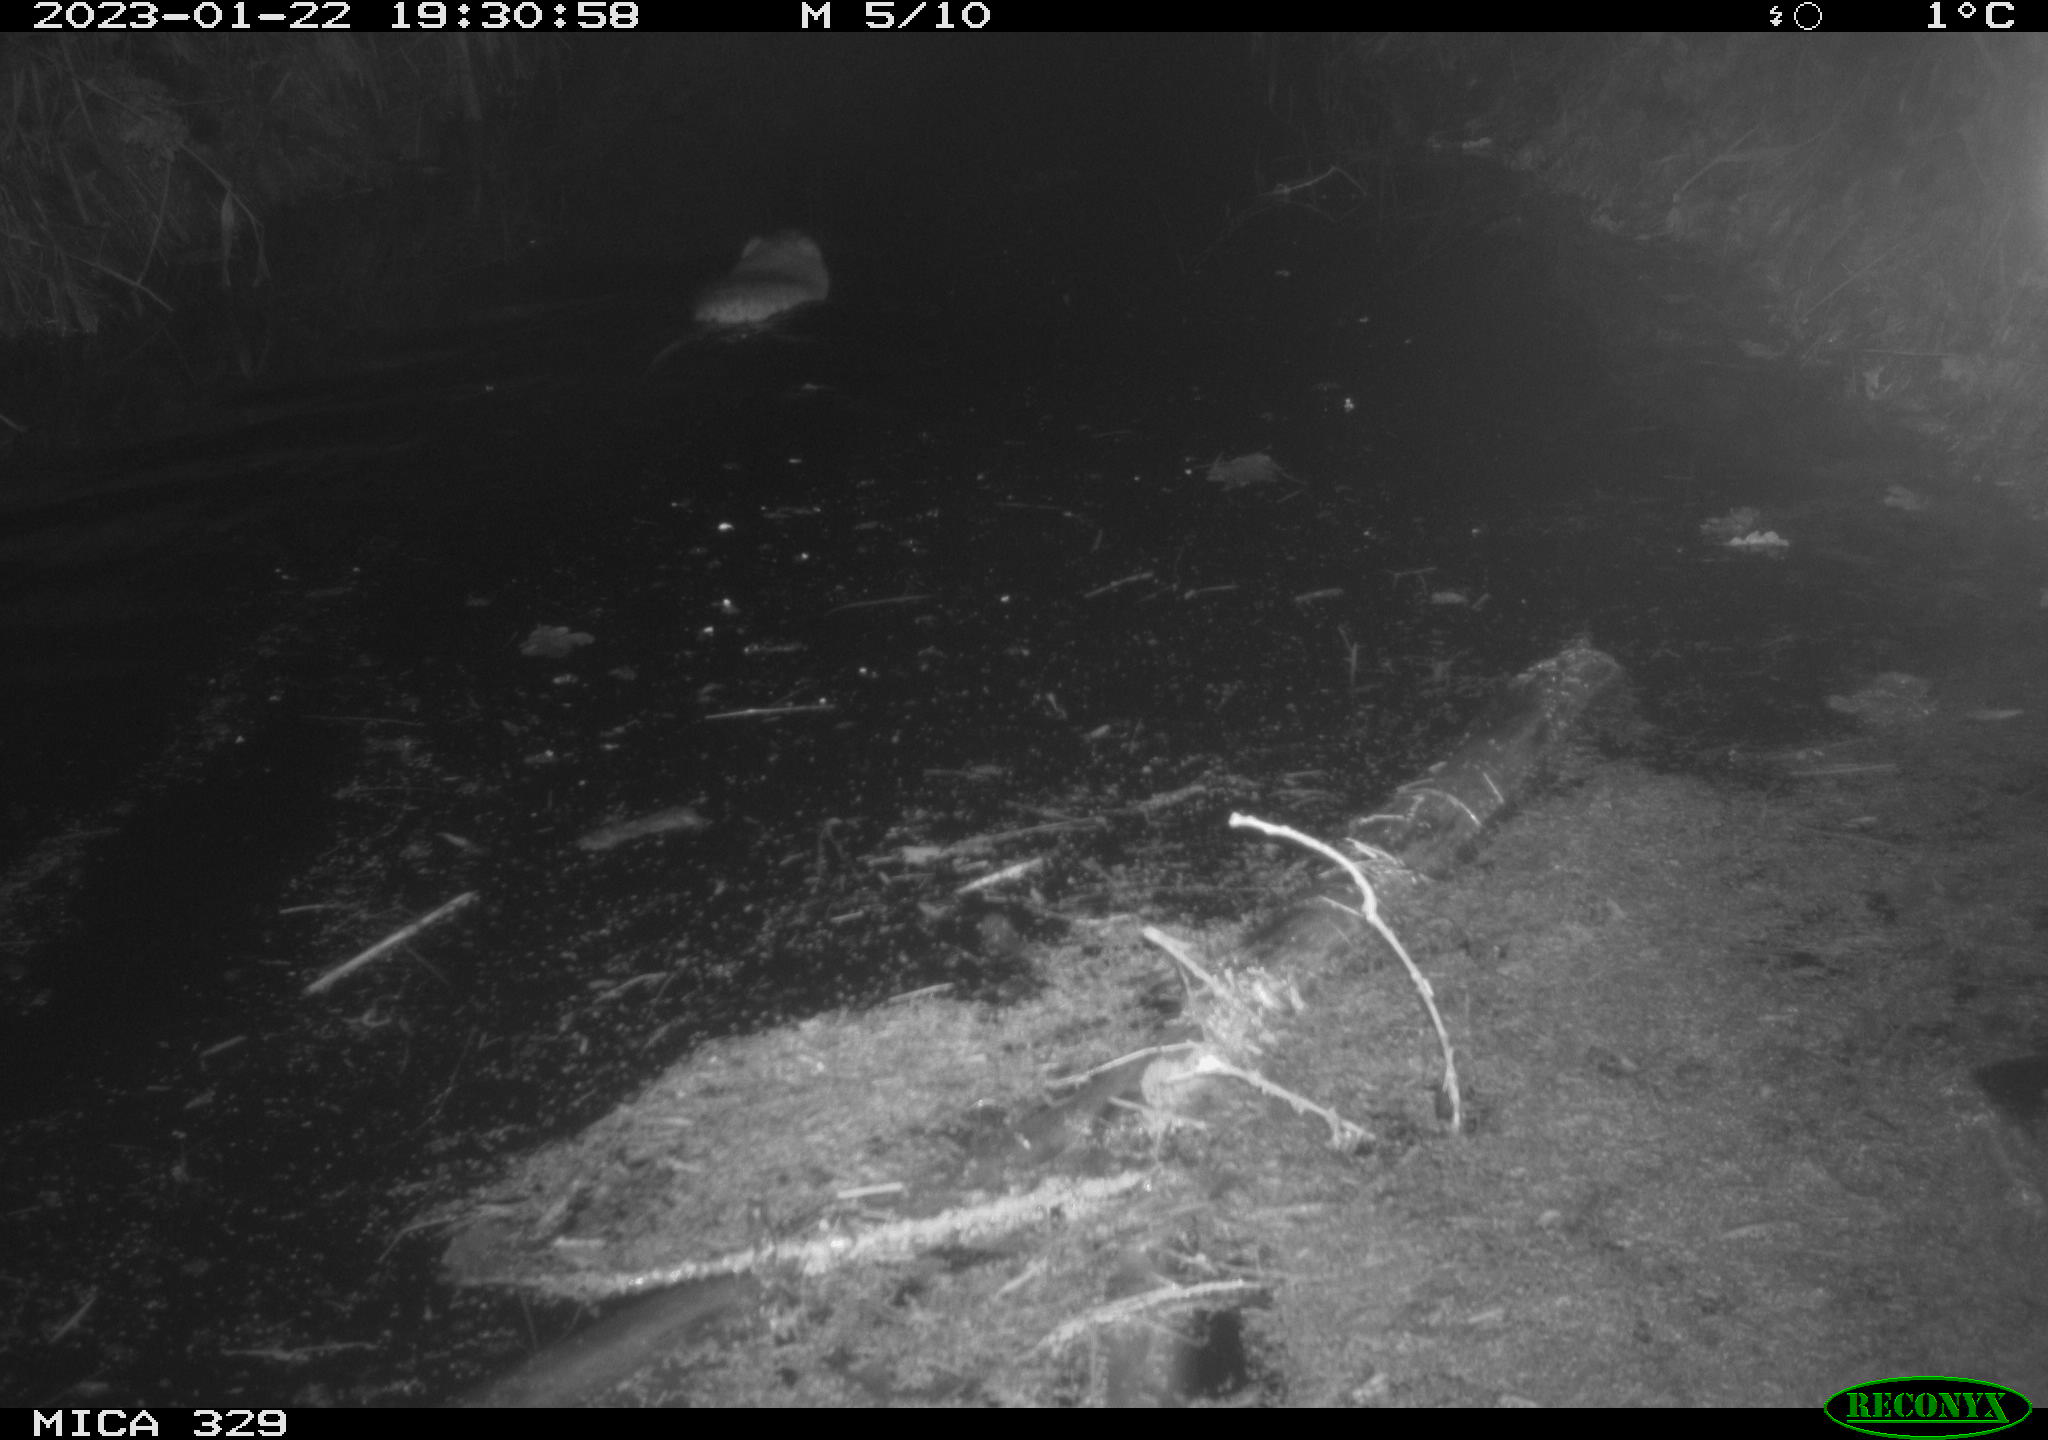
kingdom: Animalia
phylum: Chordata
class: Mammalia
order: Rodentia
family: Cricetidae
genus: Ondatra
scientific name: Ondatra zibethicus
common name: Muskrat
